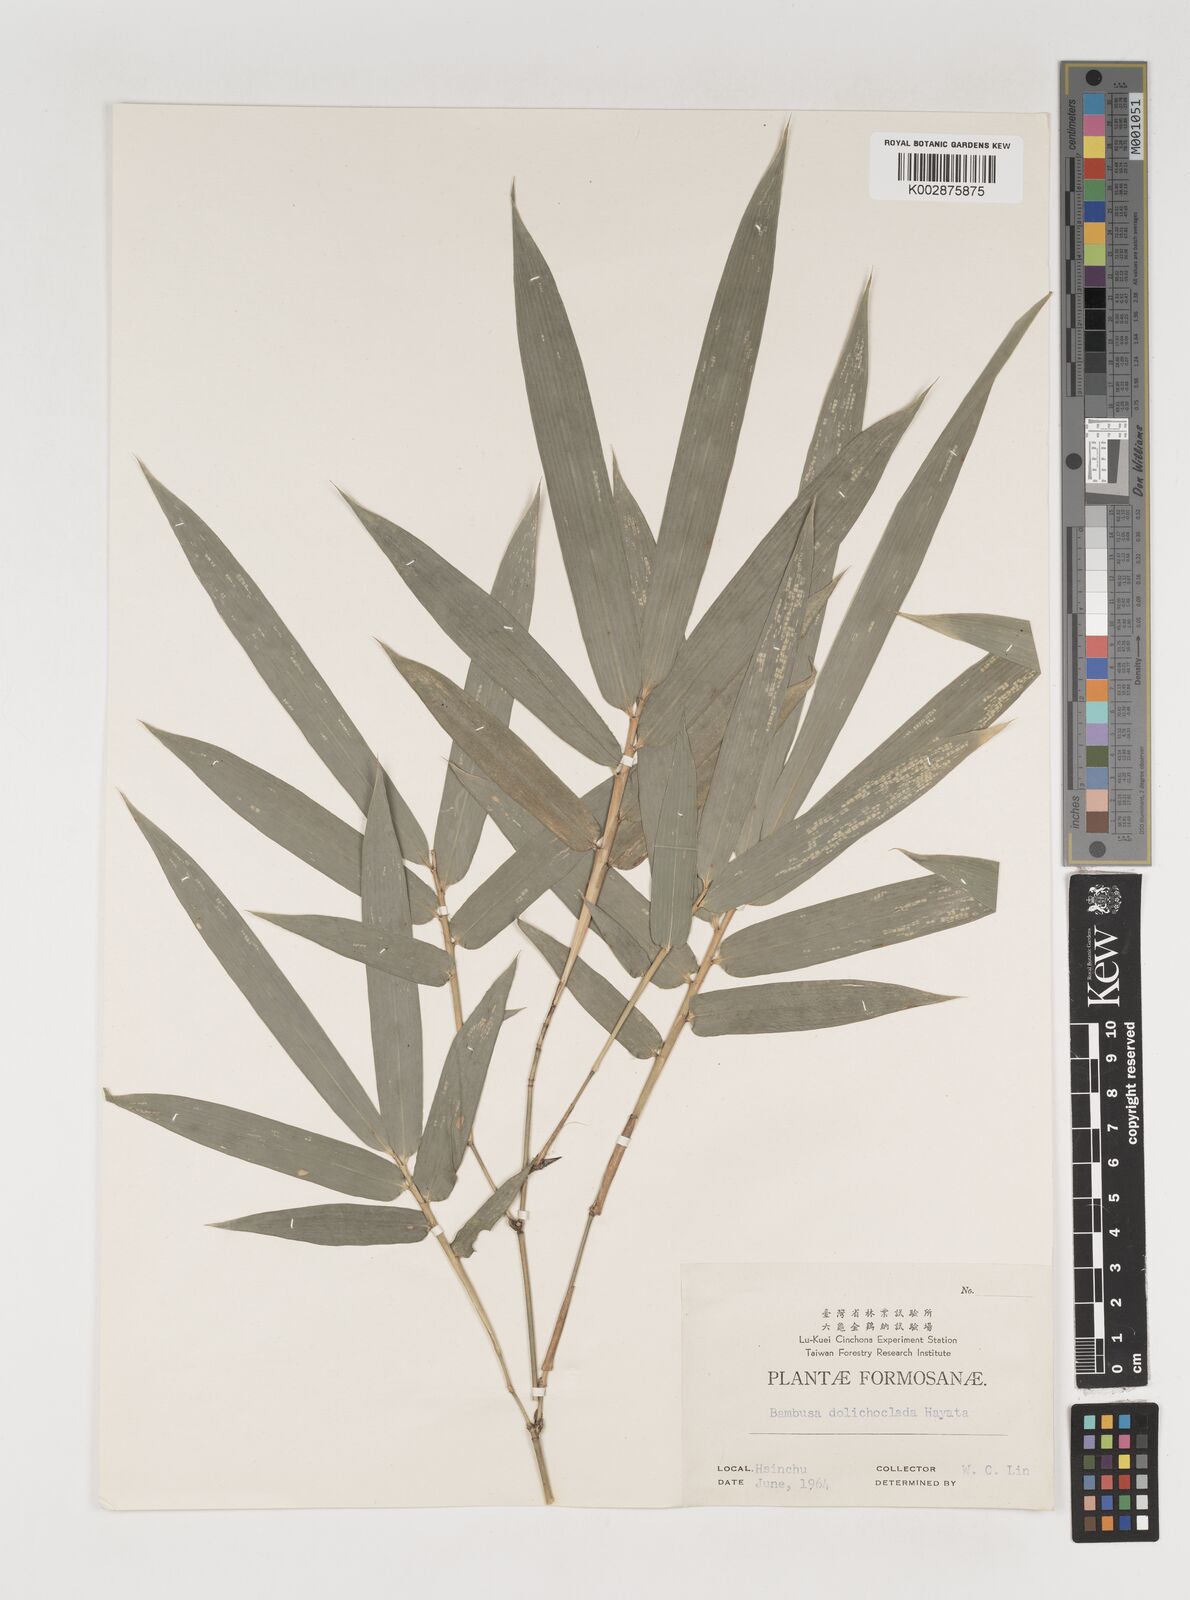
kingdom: Plantae
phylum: Tracheophyta
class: Liliopsida
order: Poales
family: Poaceae
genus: Bambusa
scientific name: Bambusa dolichoclada
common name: Long-shoot bamboo
